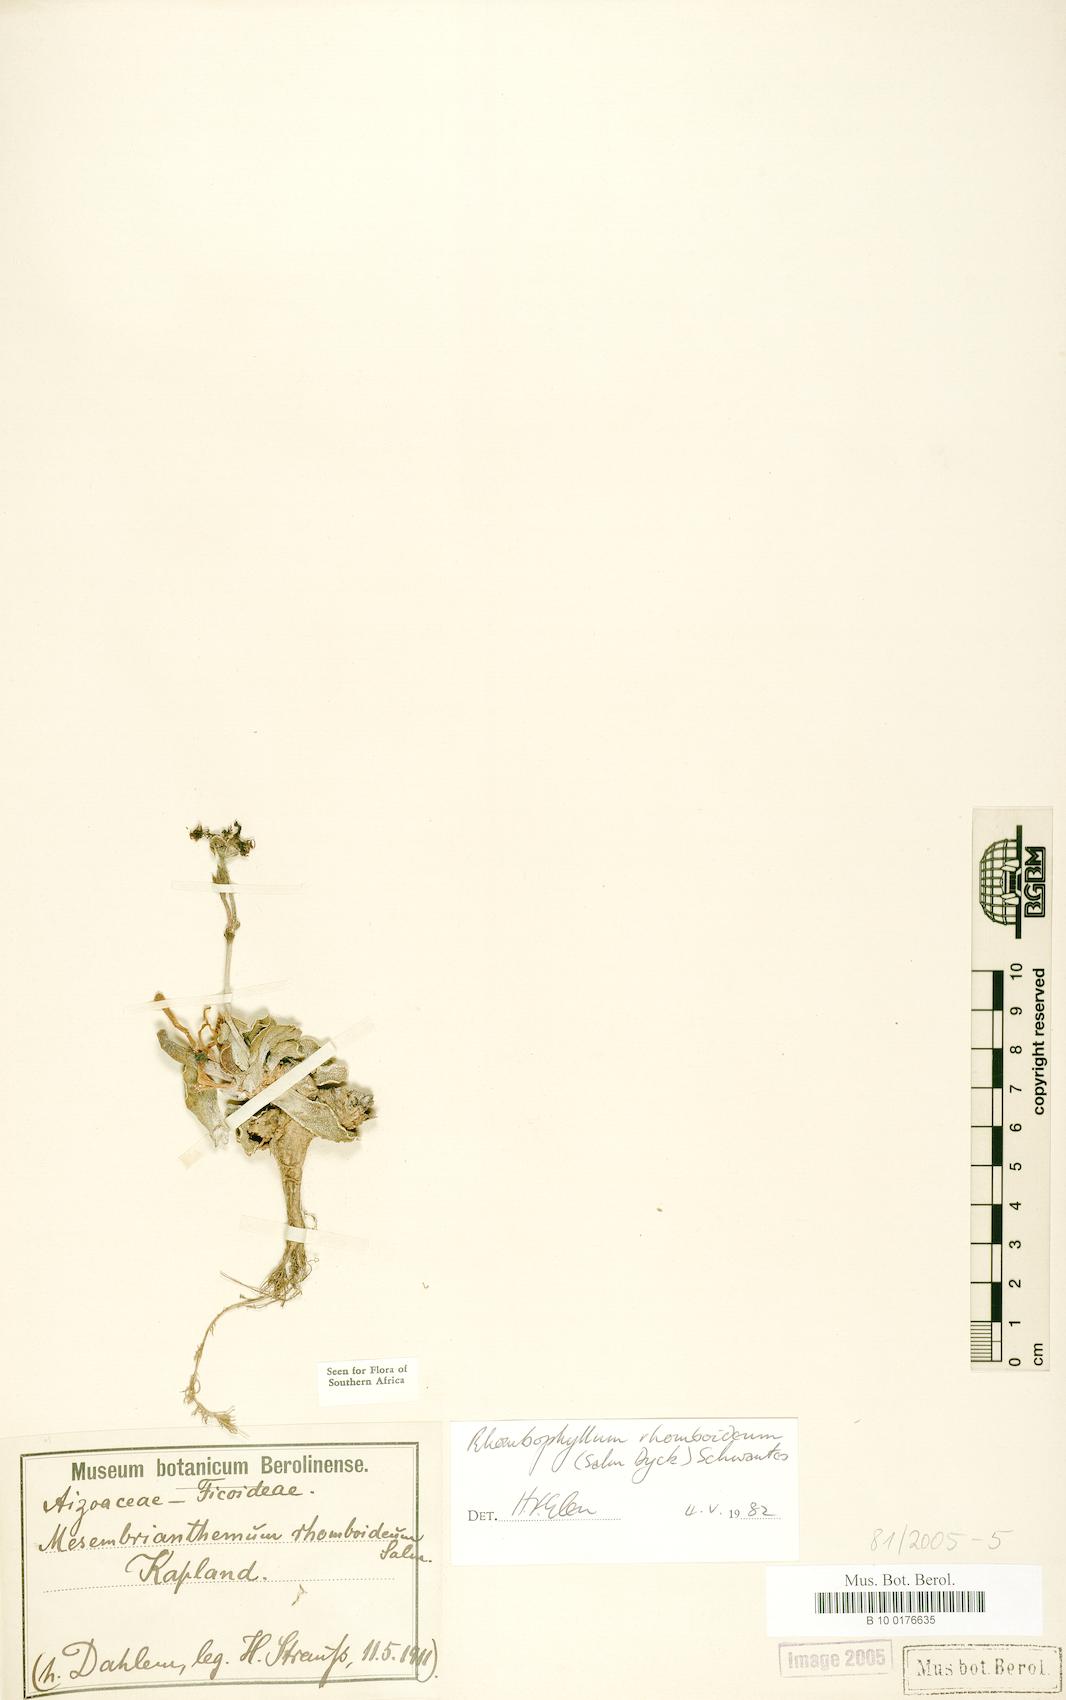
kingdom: Plantae
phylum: Tracheophyta
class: Magnoliopsida
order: Caryophyllales
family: Aizoaceae
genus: Dracophilus
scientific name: Dracophilus Rhombophyllum rhomboideum
